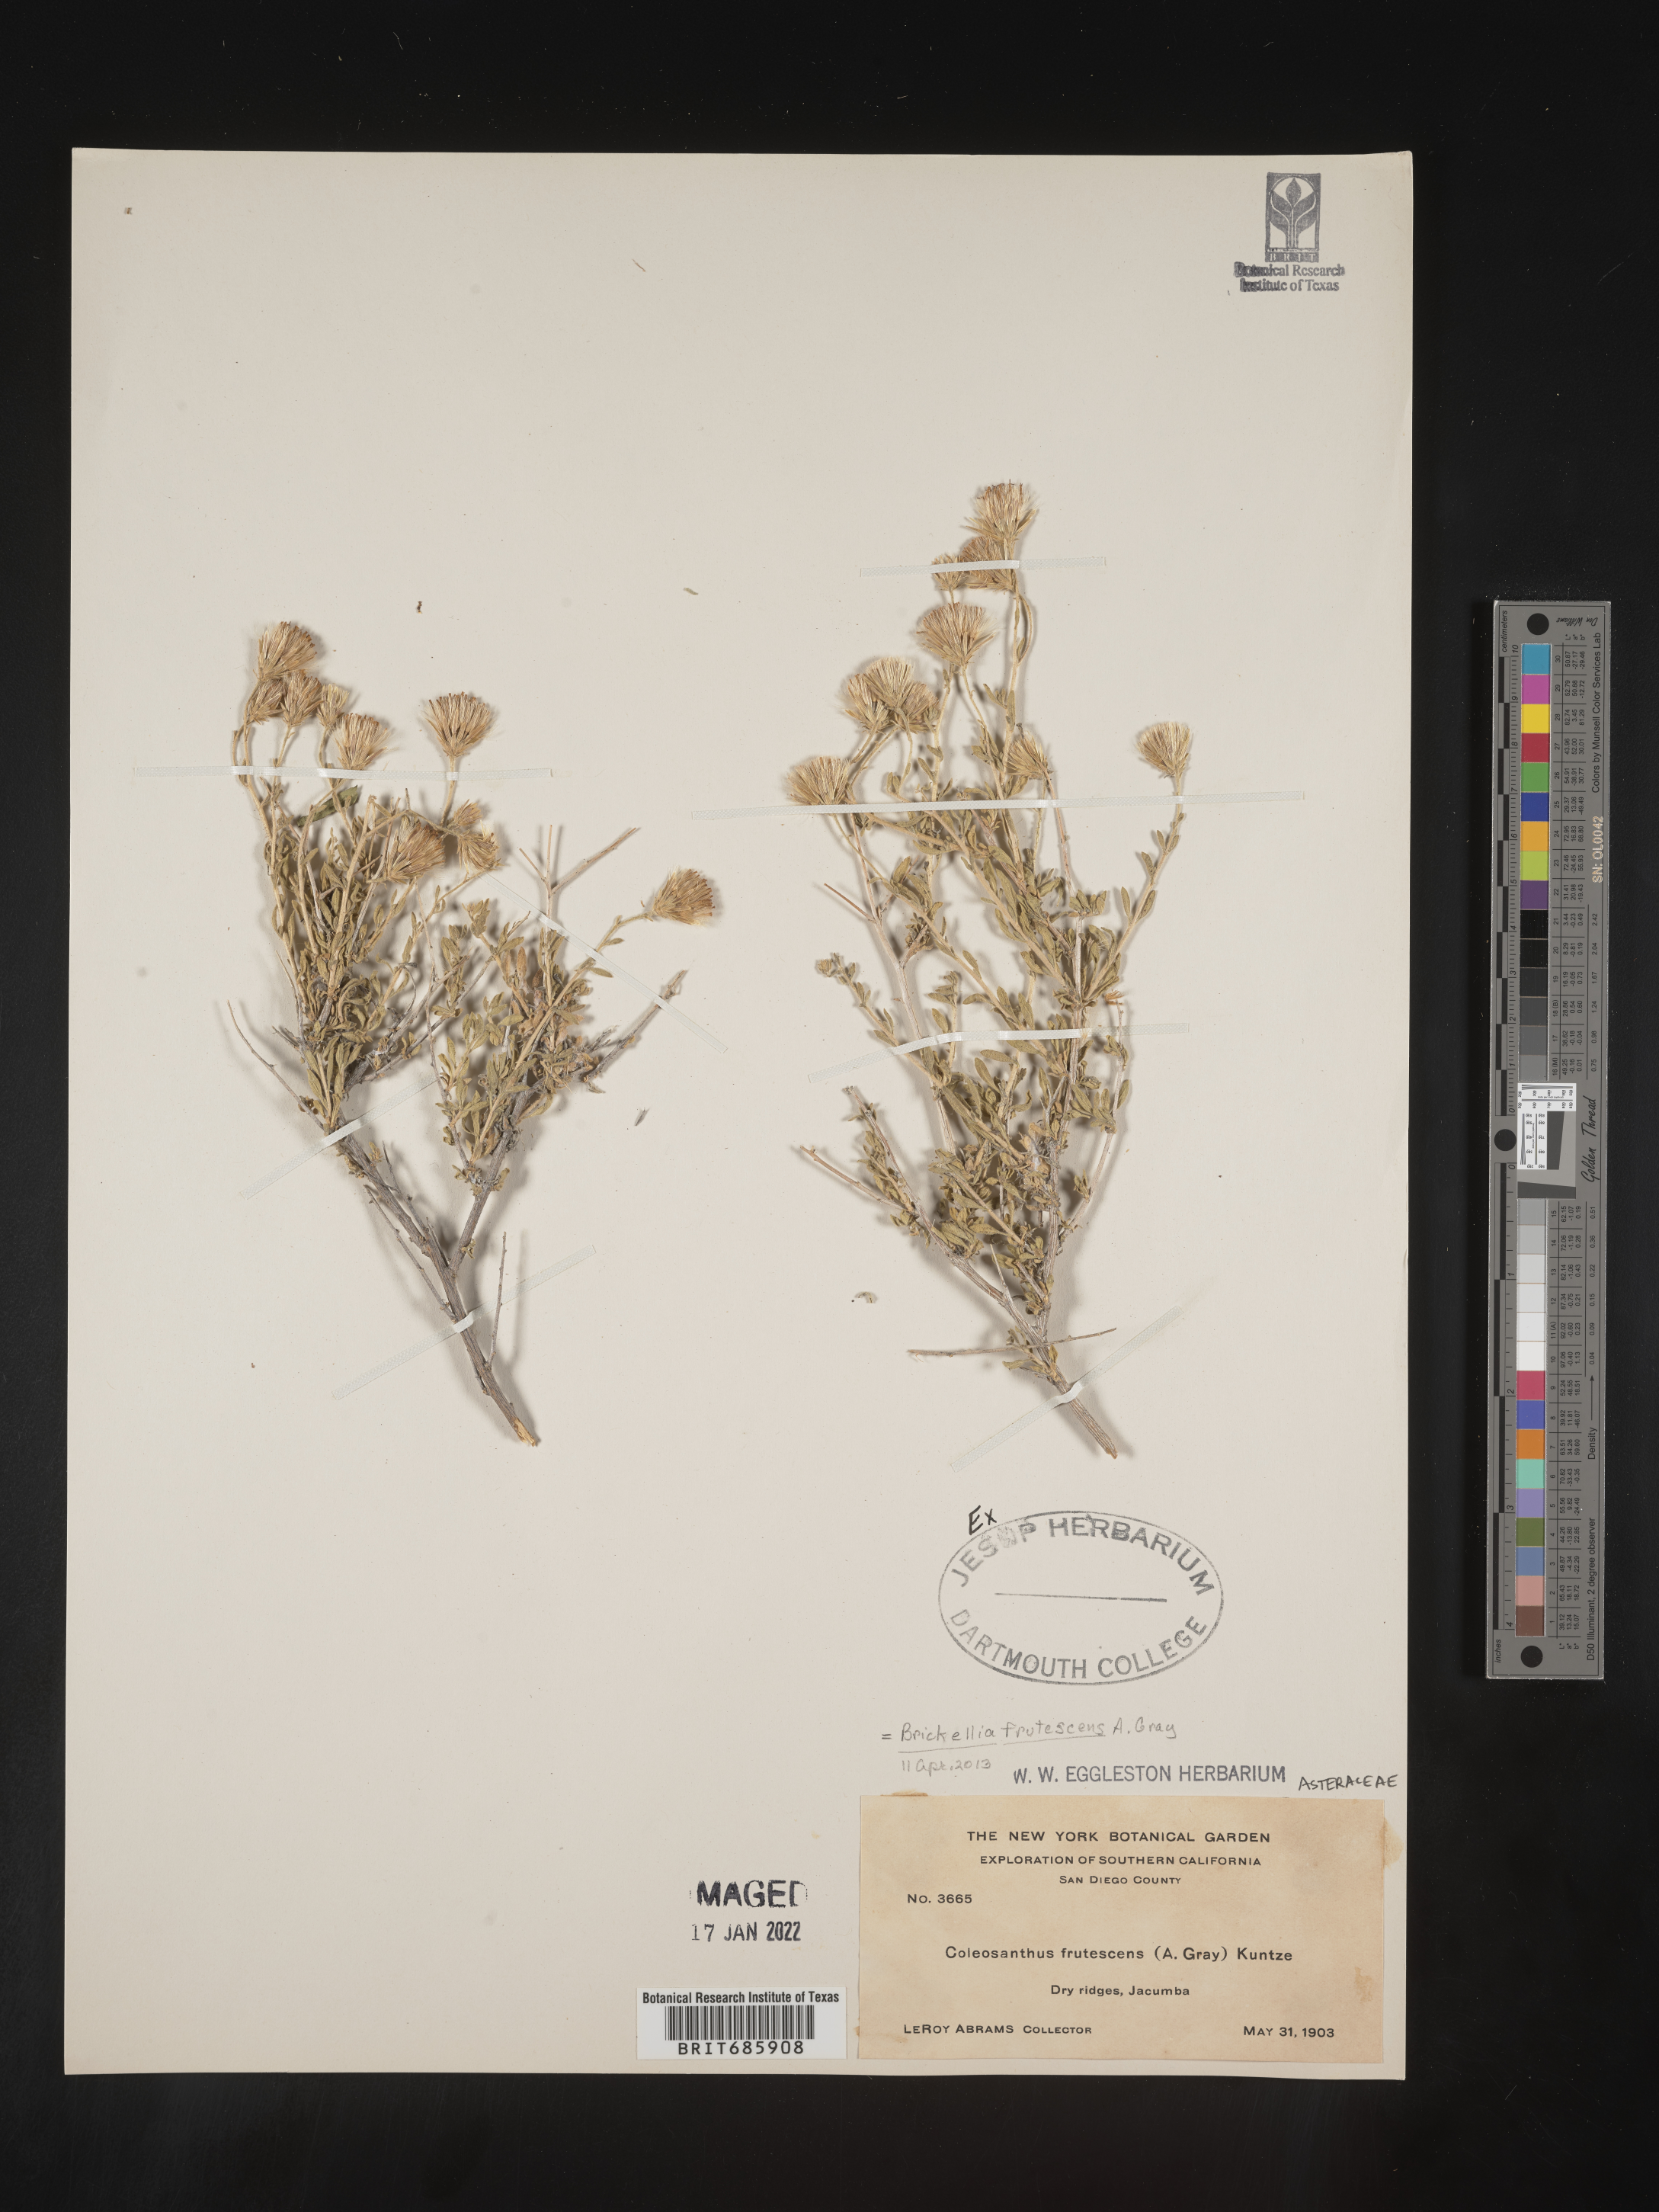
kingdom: Plantae
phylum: Tracheophyta
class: Magnoliopsida
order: Asterales
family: Asteraceae
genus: Brickellia
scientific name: Brickellia frutescens
